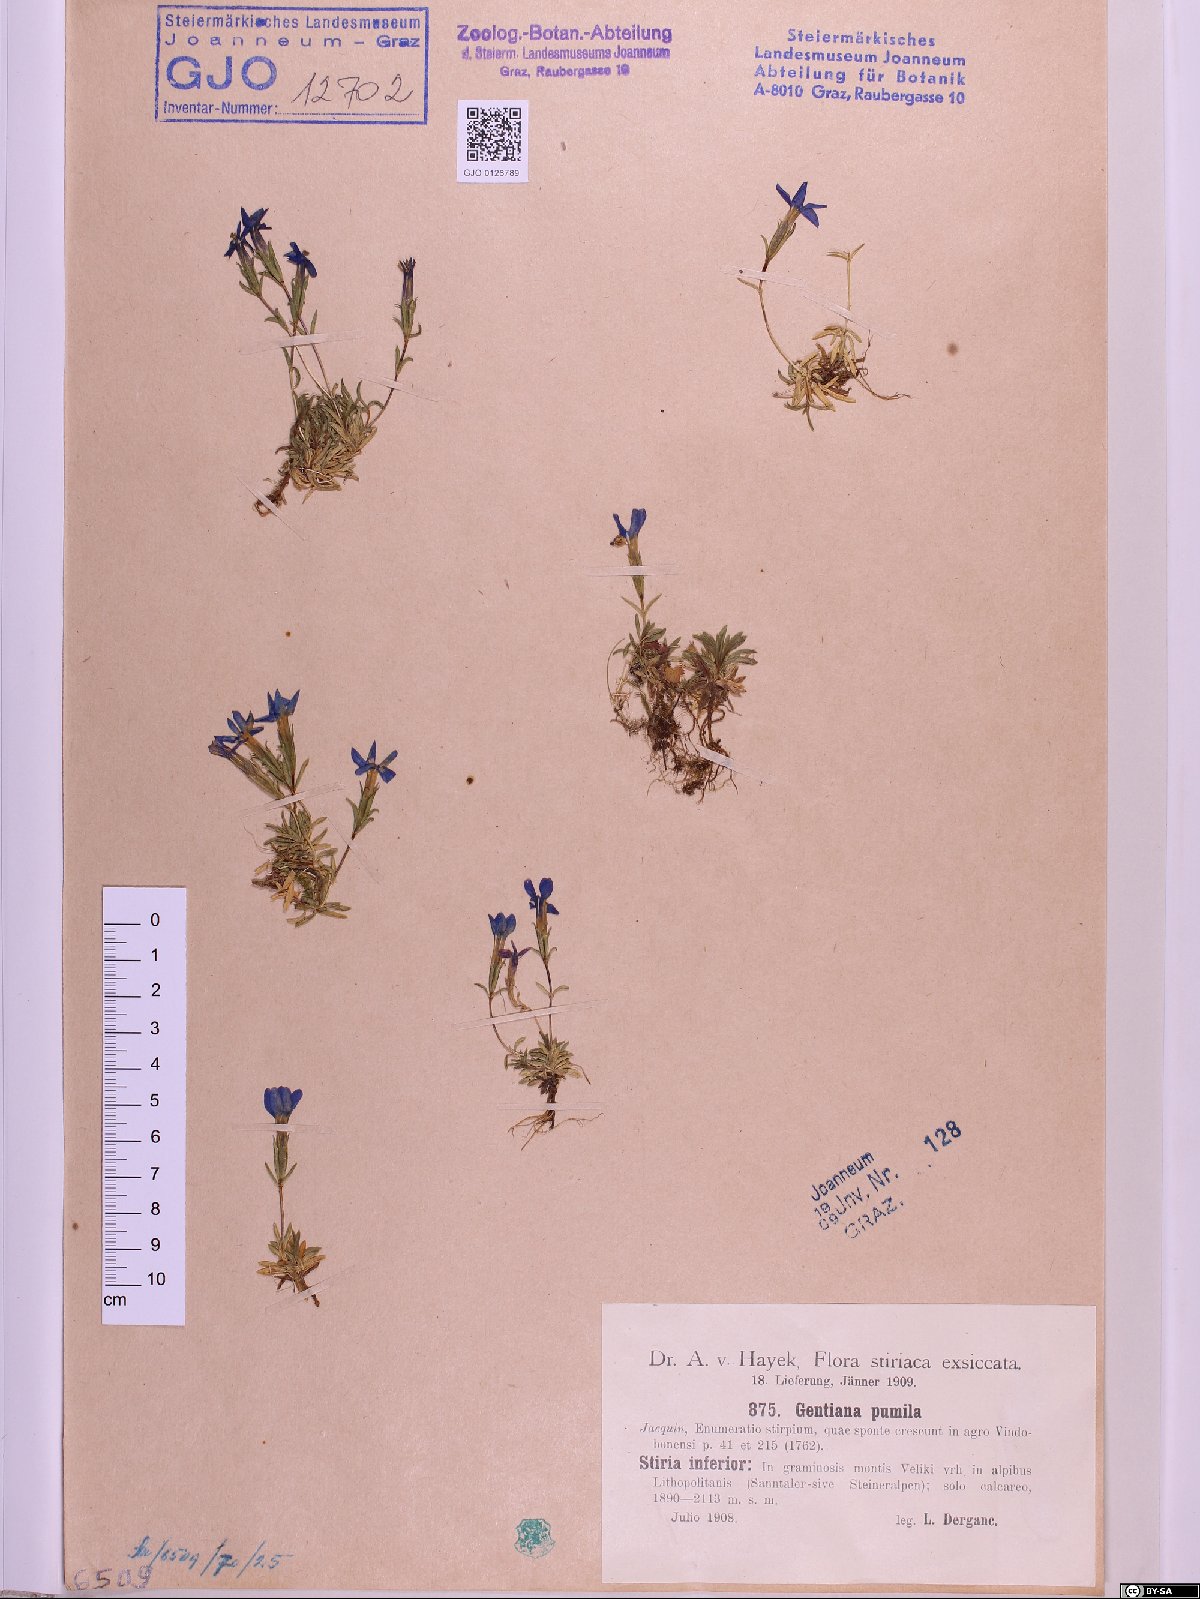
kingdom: Plantae
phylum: Tracheophyta
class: Magnoliopsida
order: Gentianales
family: Gentianaceae
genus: Gentiana
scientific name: Gentiana pumila
